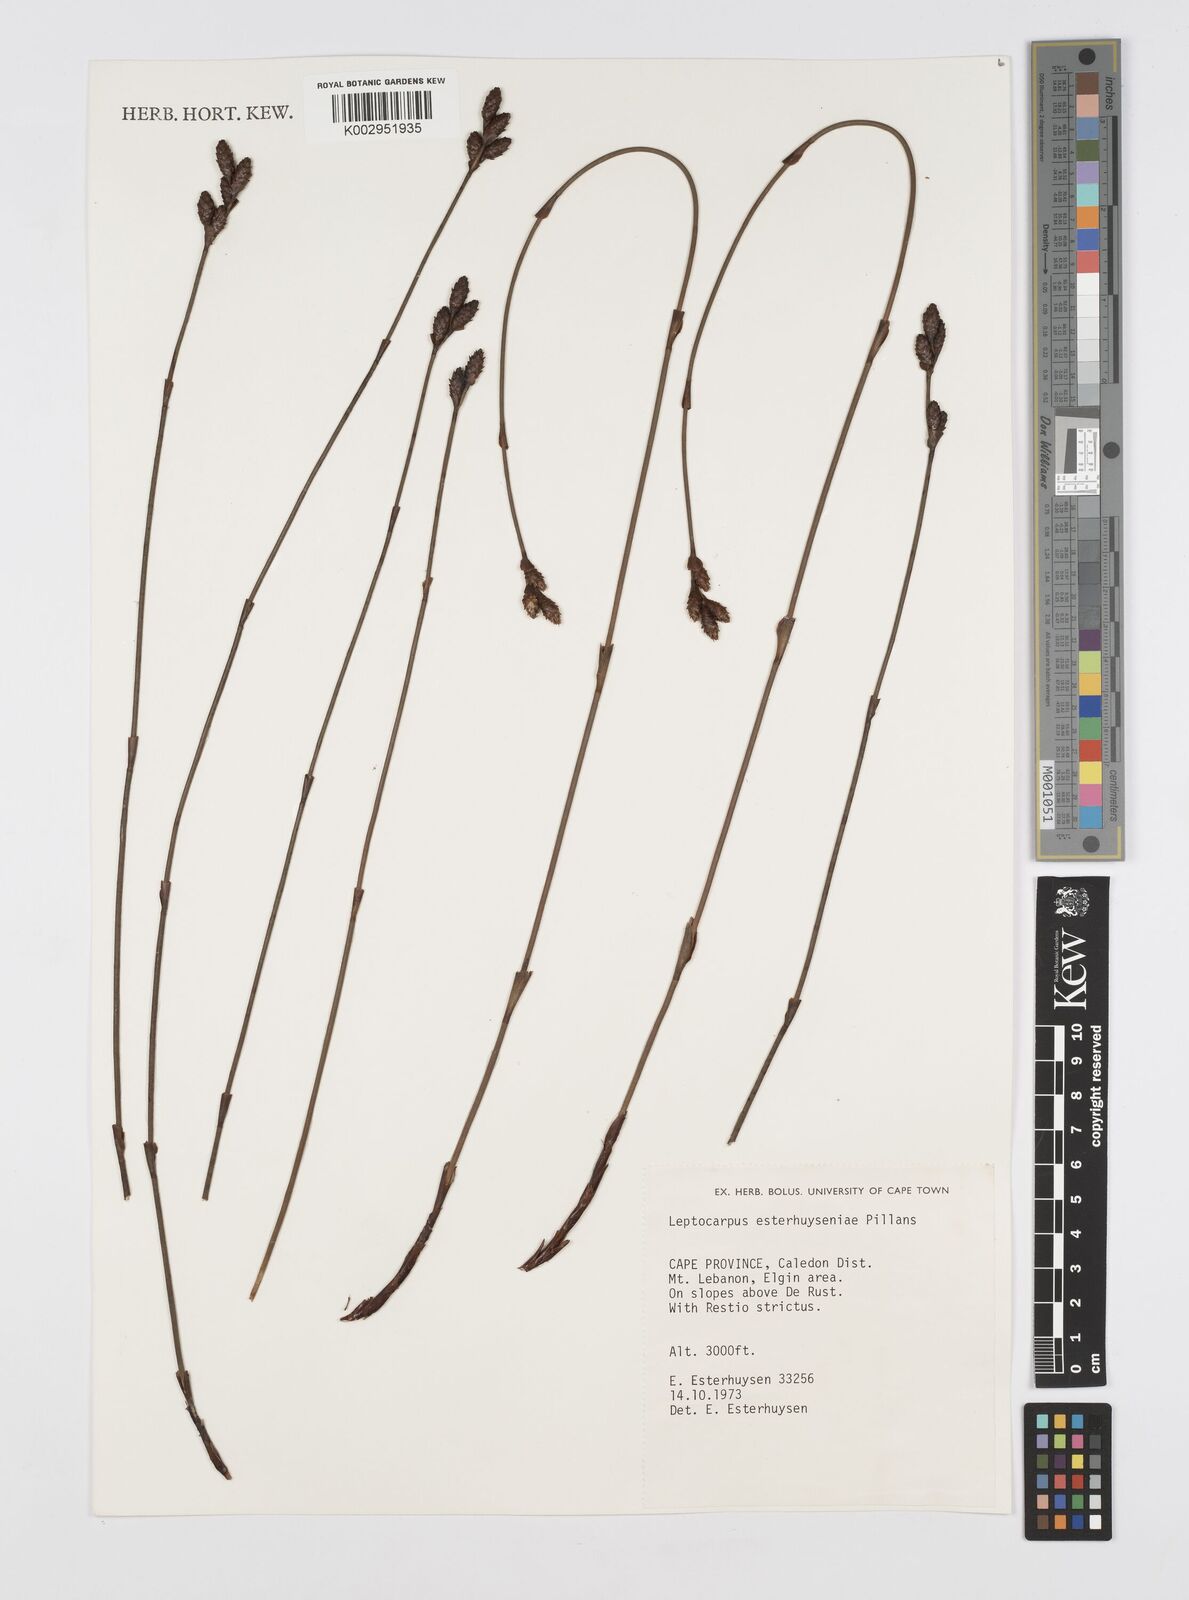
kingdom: Plantae
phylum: Tracheophyta
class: Liliopsida
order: Poales
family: Restionaceae
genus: Restio
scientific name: Restio esterhuyseniae
